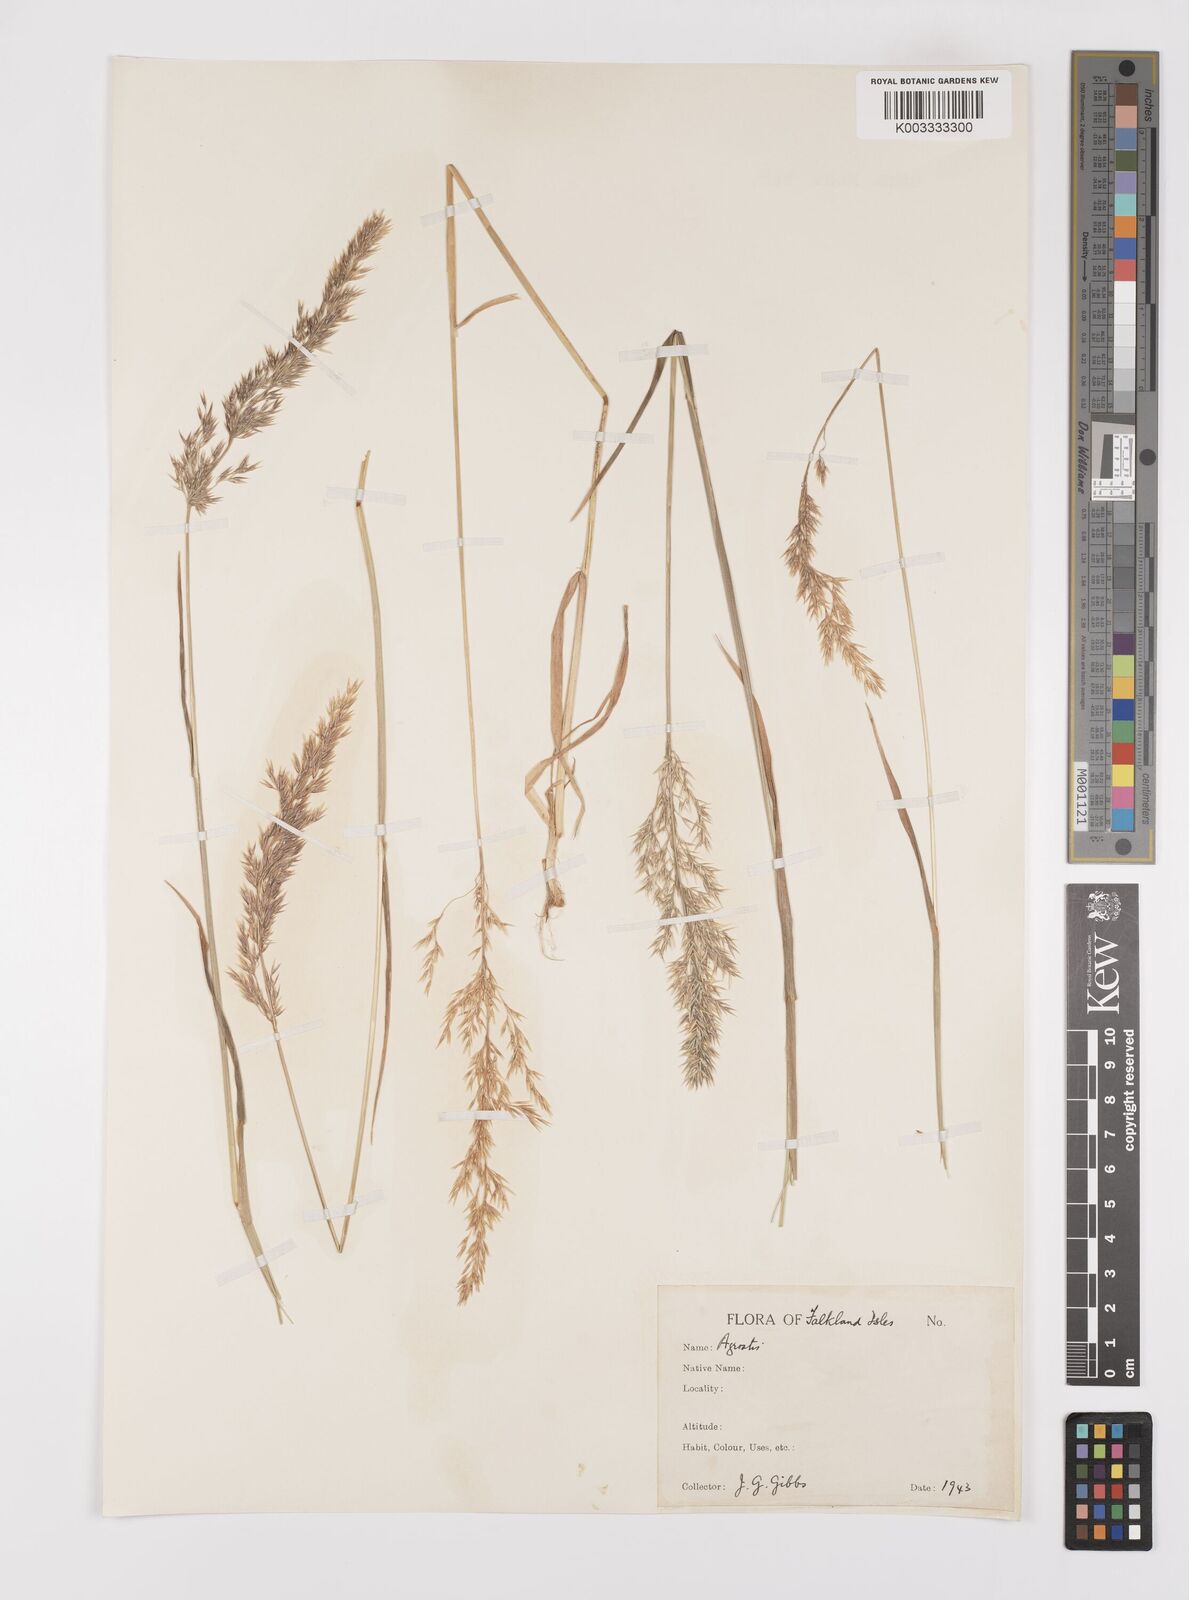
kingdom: Plantae
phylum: Tracheophyta
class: Liliopsida
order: Poales
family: Poaceae
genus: Polypogon
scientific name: Polypogon magellanicus
